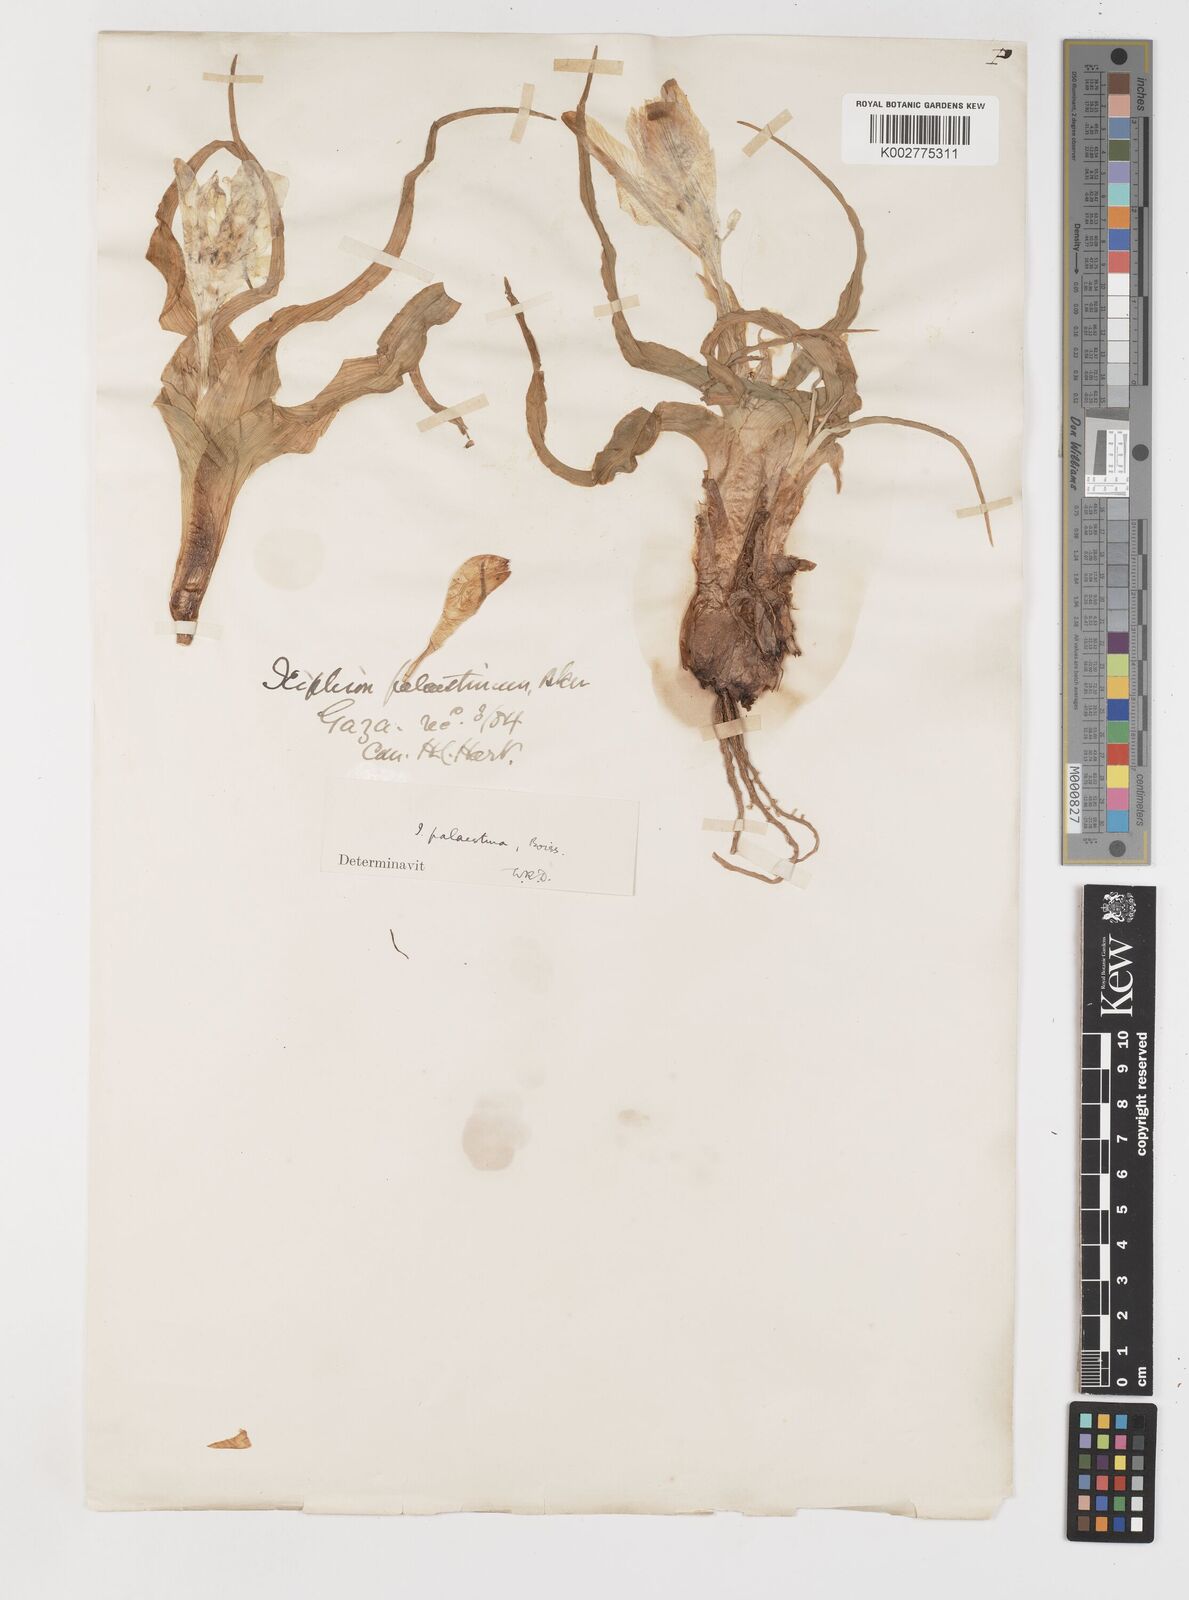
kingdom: Plantae
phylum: Tracheophyta
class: Liliopsida
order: Asparagales
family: Iridaceae
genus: Iris
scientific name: Iris palaestina
